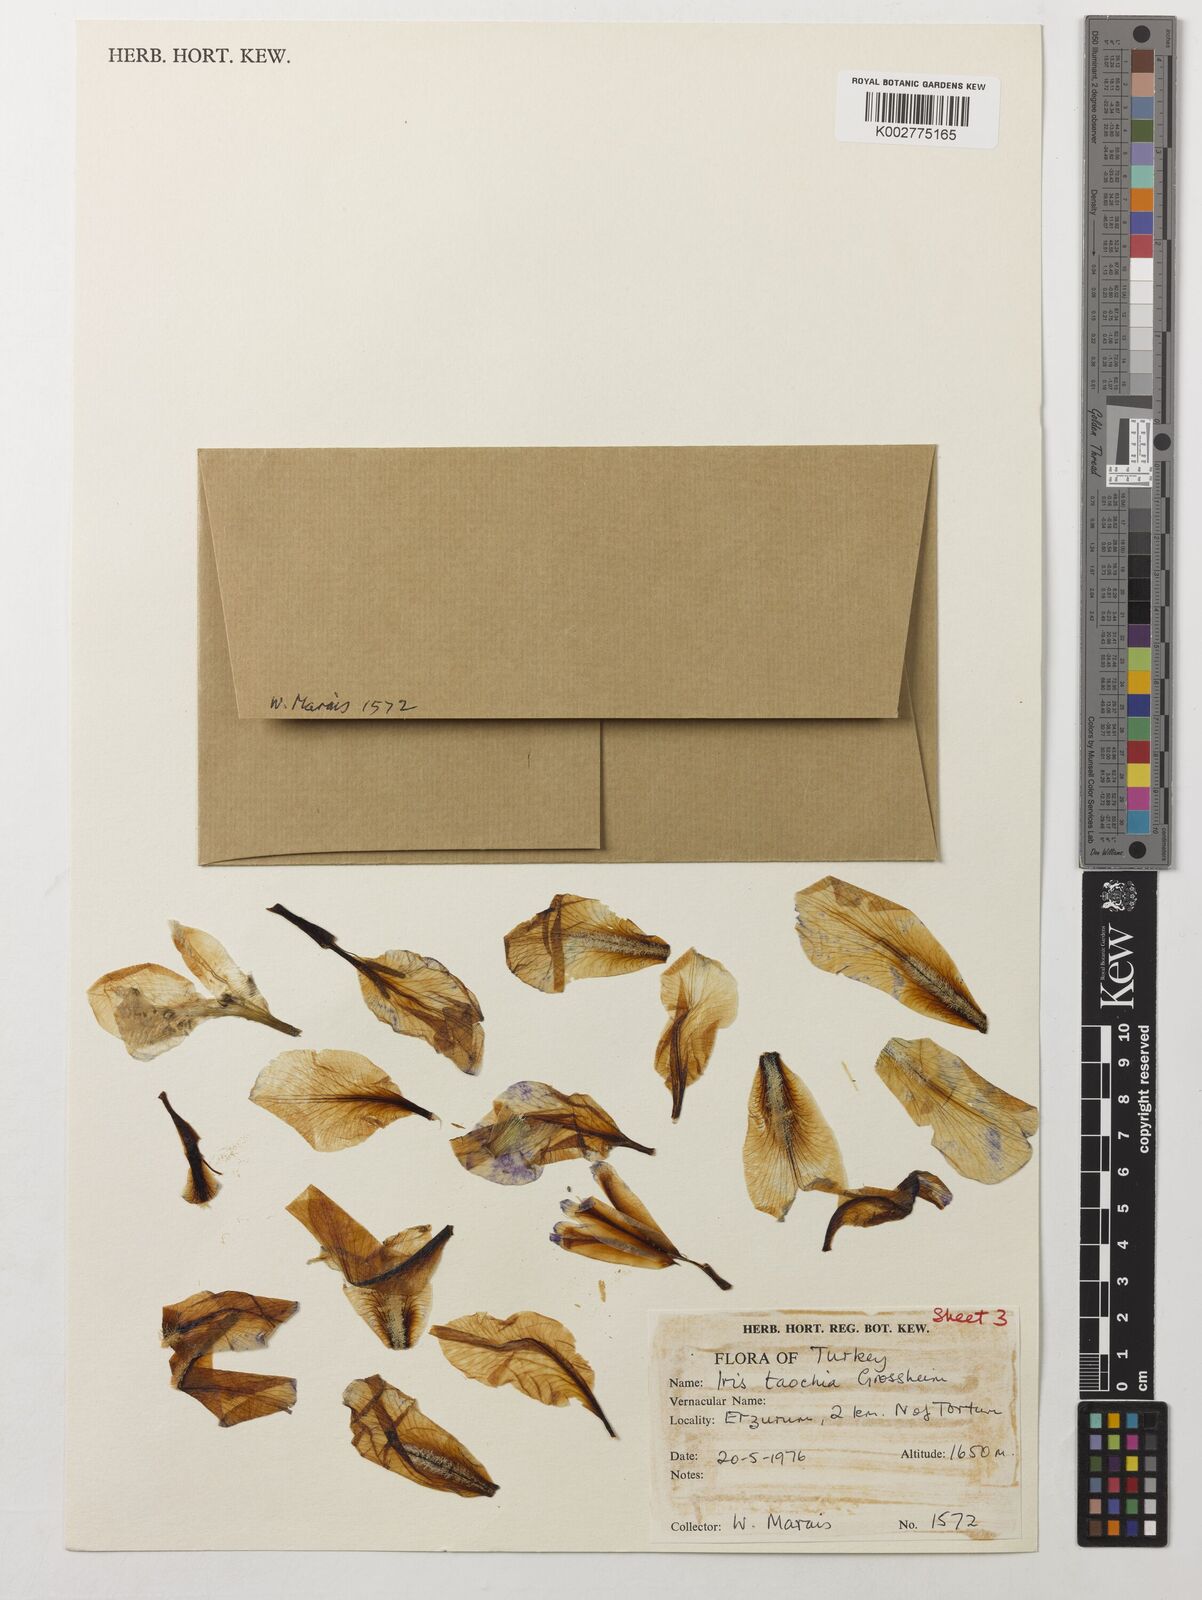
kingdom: Plantae
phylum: Tracheophyta
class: Liliopsida
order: Asparagales
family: Iridaceae
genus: Iris
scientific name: Iris taochia
